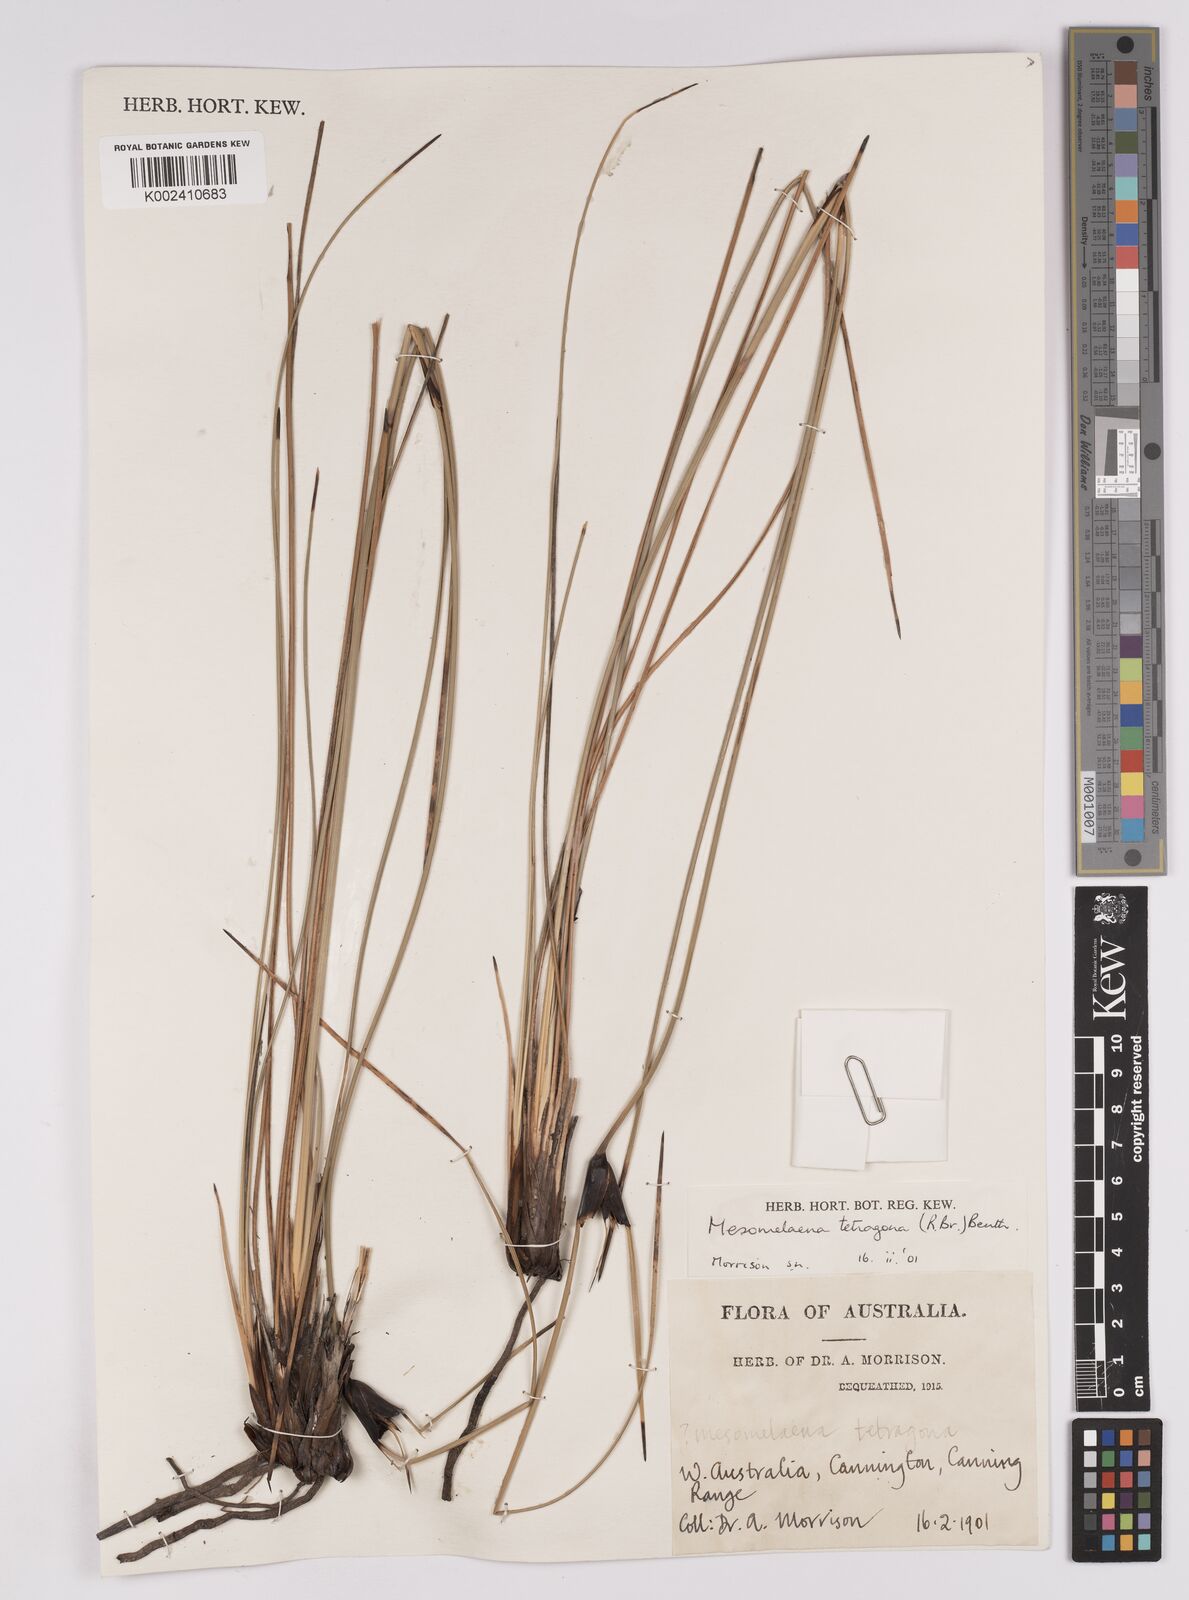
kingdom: Plantae
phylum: Tracheophyta
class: Liliopsida
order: Poales
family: Cyperaceae
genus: Mesomelaena
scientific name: Mesomelaena tetragona
